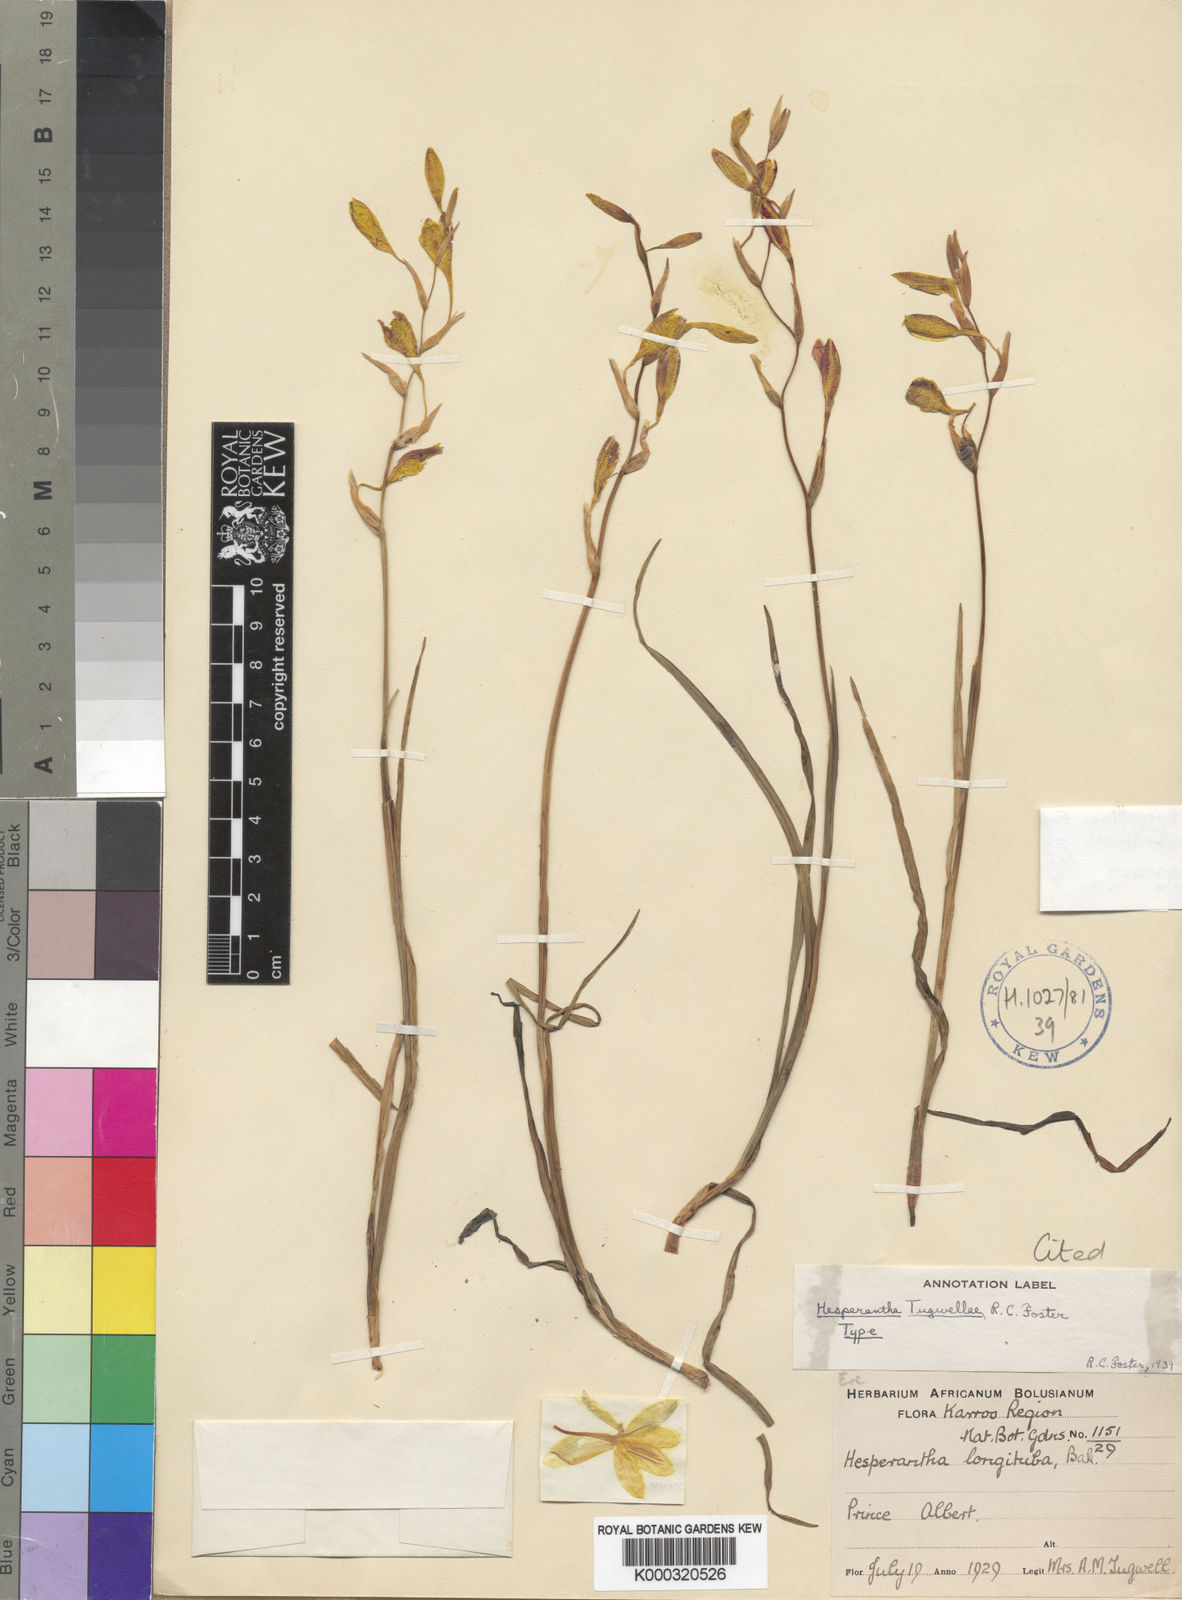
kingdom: Plantae
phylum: Tracheophyta
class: Liliopsida
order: Asparagales
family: Iridaceae
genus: Hesperantha
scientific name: Hesperantha acuta
